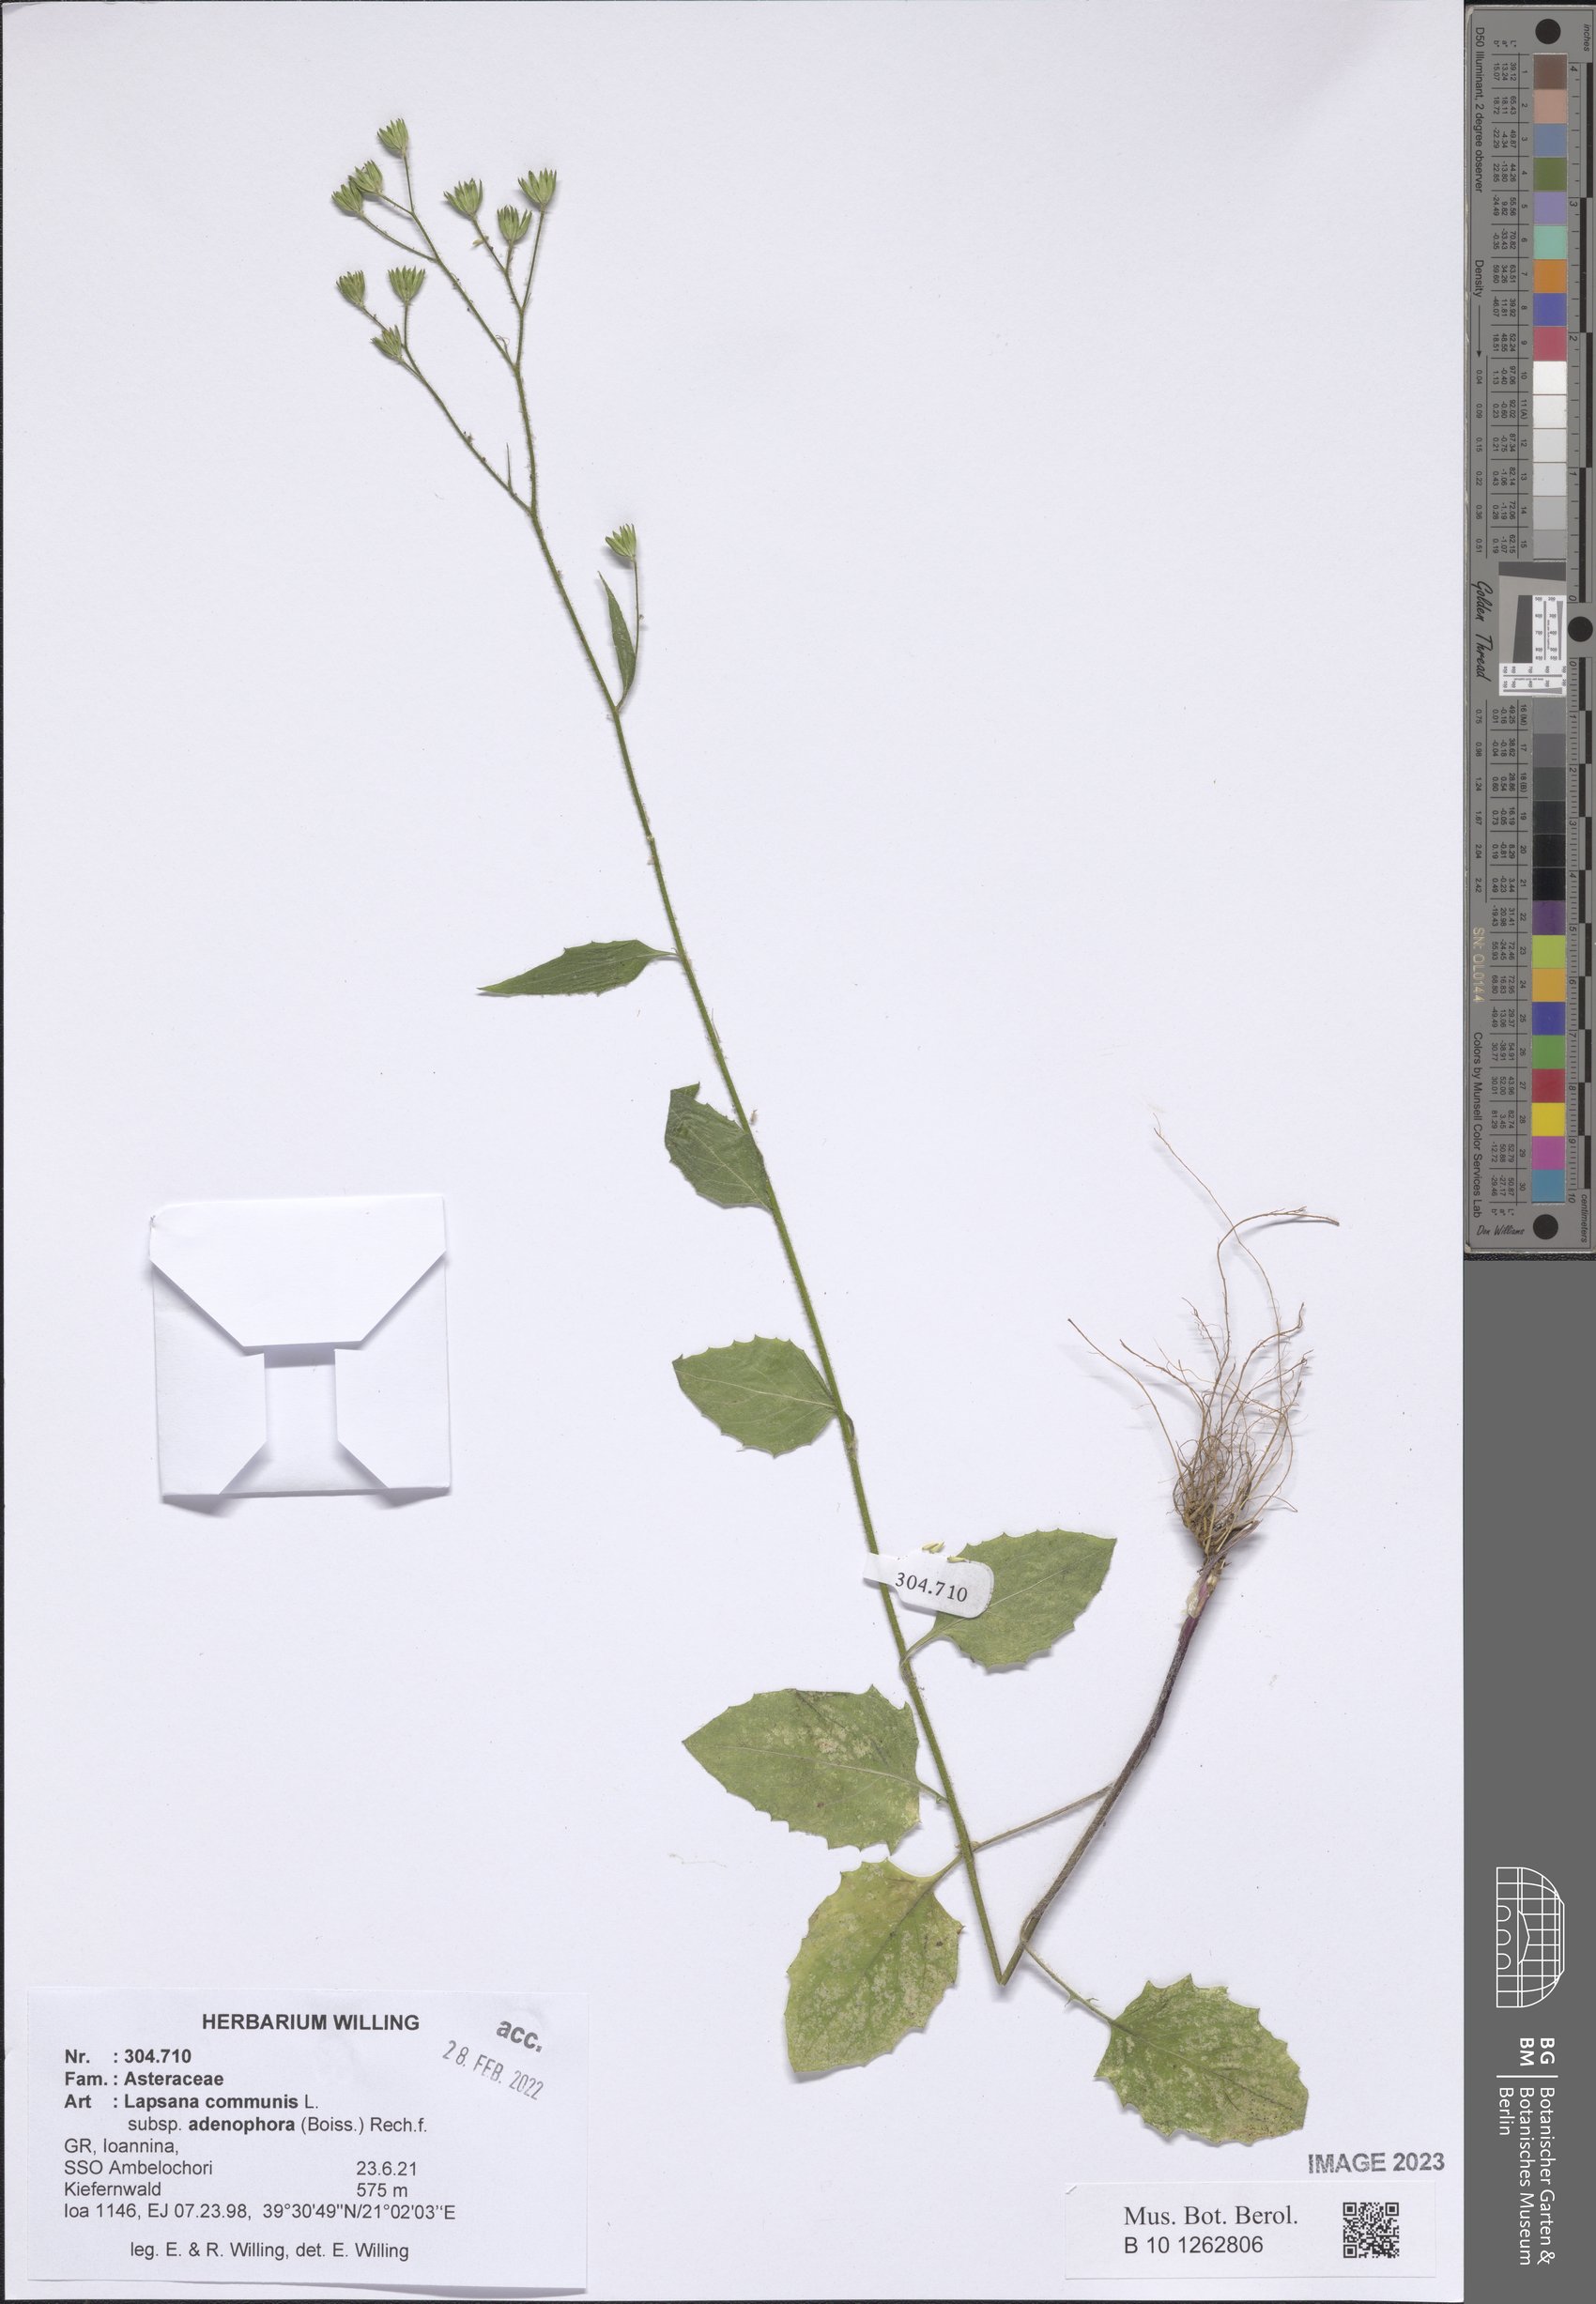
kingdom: Plantae
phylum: Tracheophyta
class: Magnoliopsida
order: Asterales
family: Asteraceae
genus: Lapsana
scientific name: Lapsana communis
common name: Nipplewort
